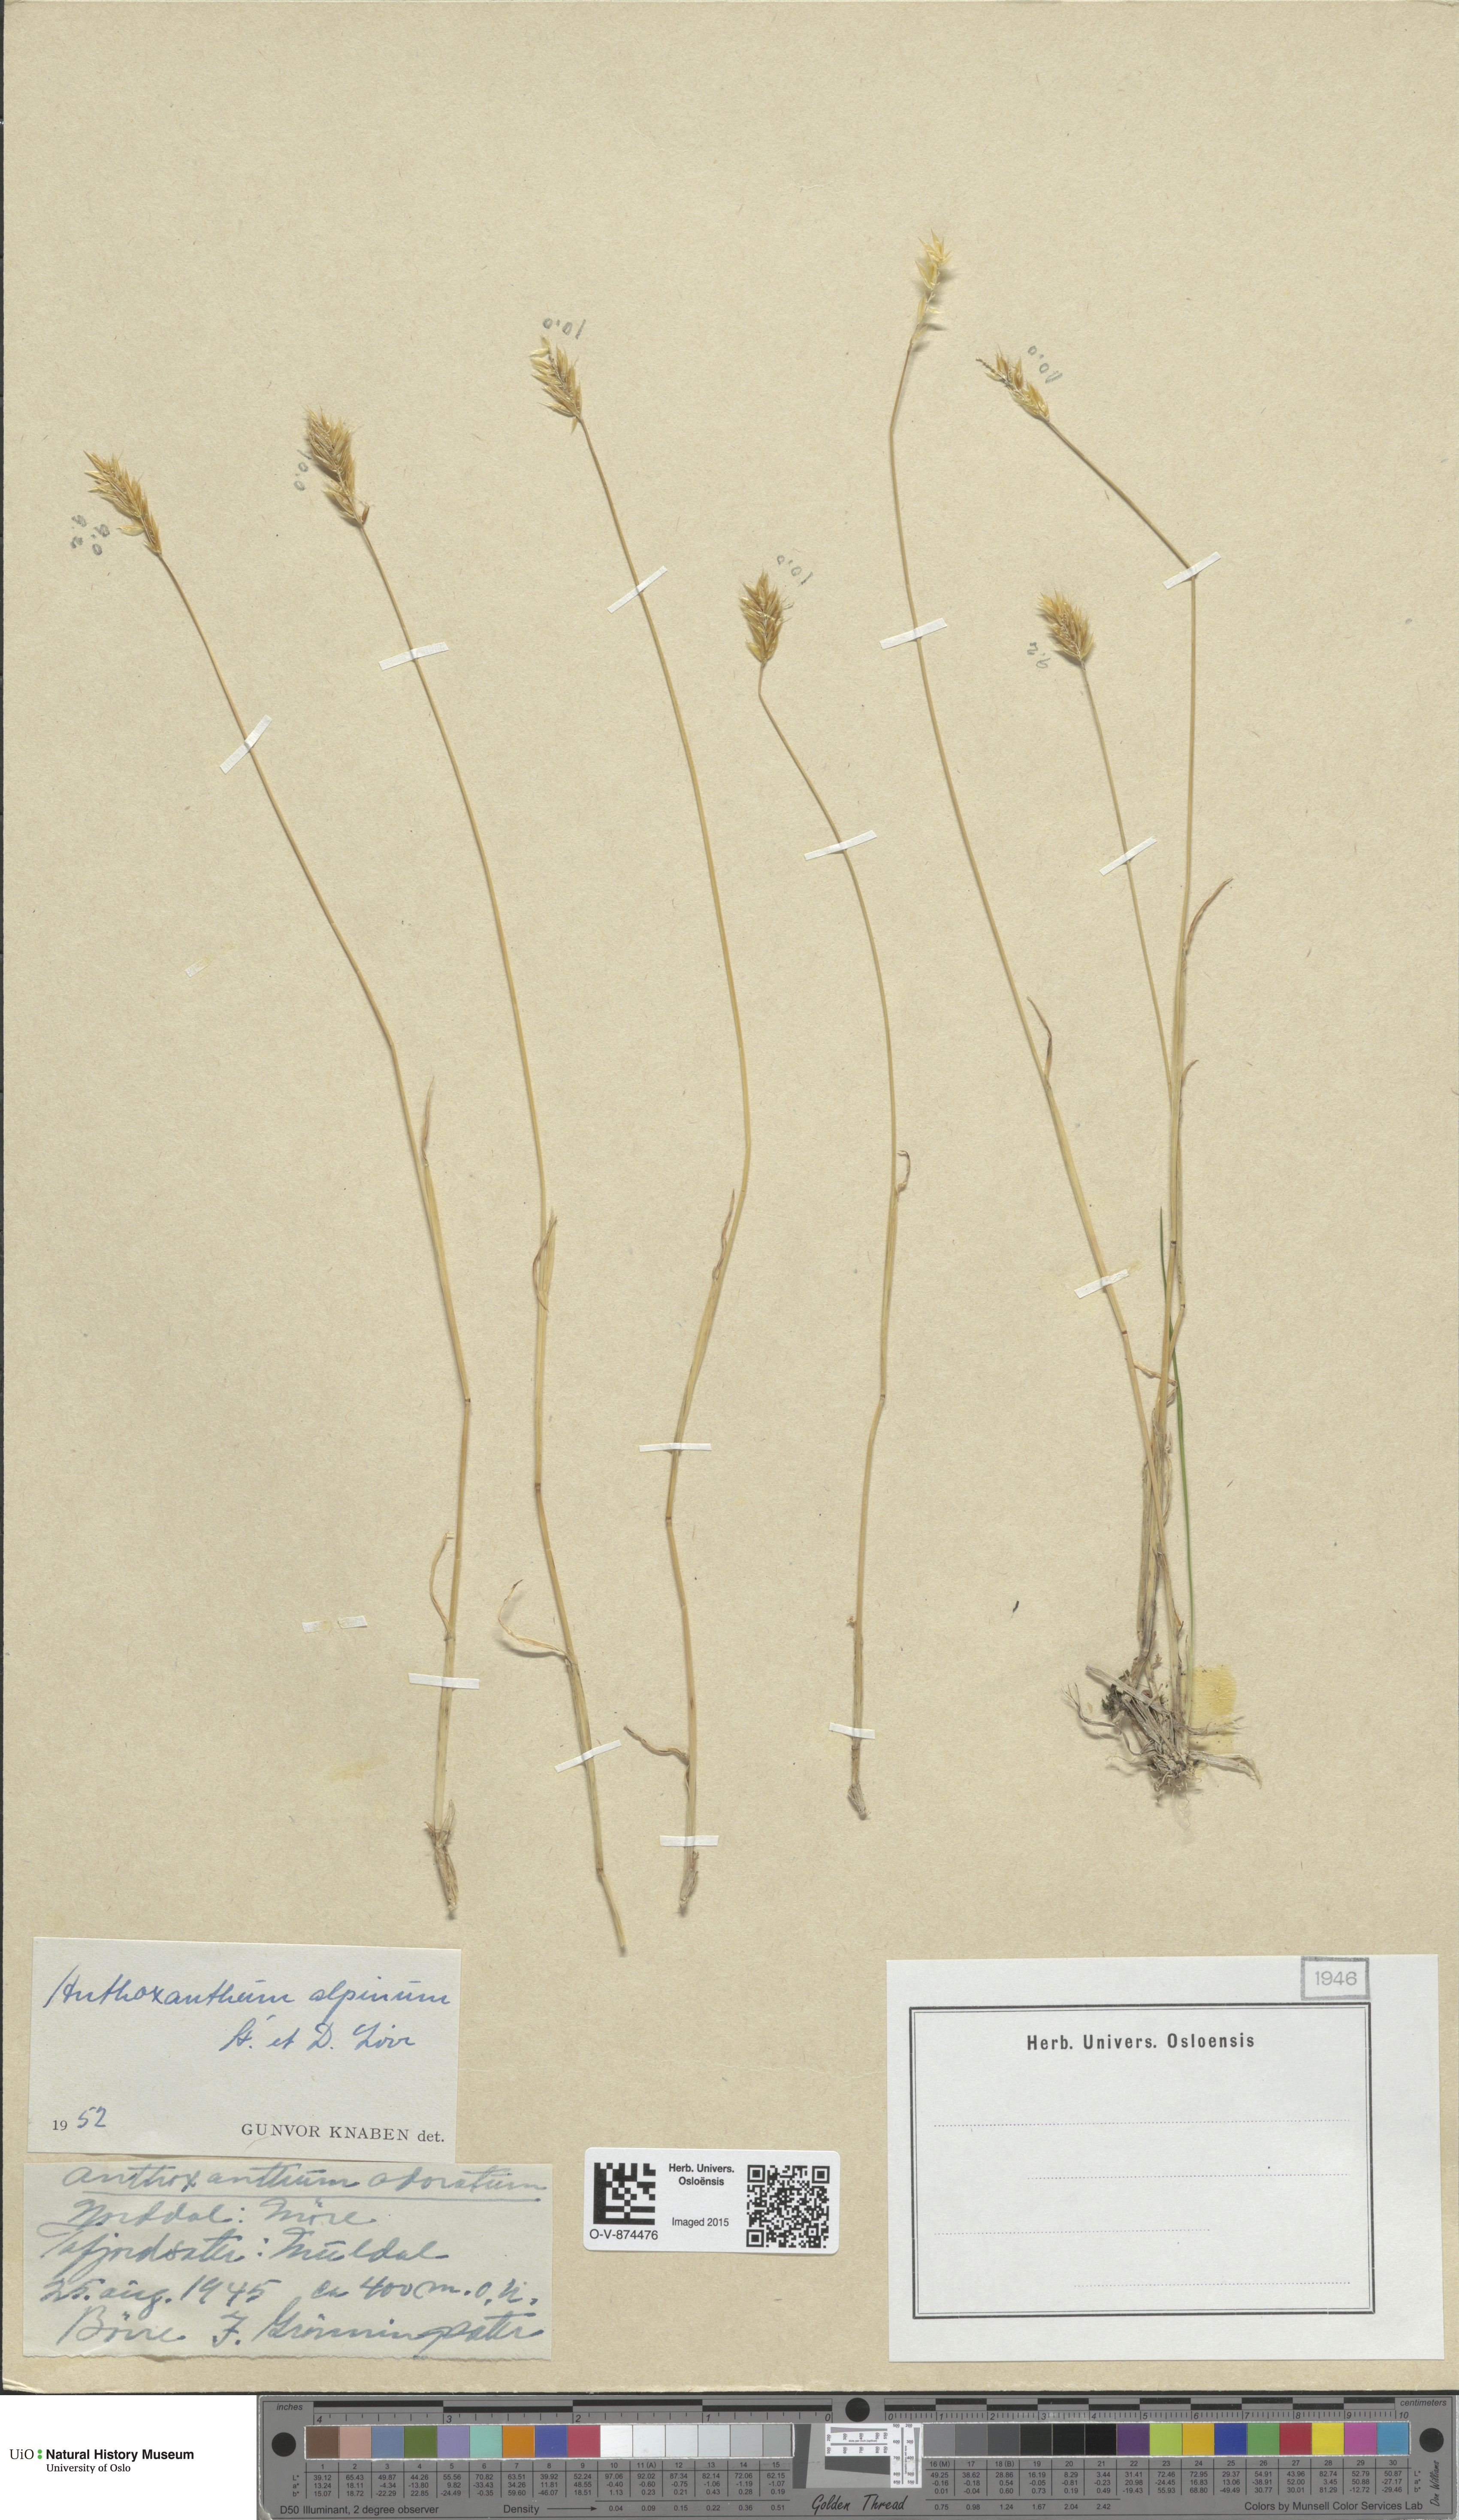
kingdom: Plantae
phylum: Tracheophyta
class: Liliopsida
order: Poales
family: Poaceae
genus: Anthoxanthum
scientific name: Anthoxanthum nipponicum
